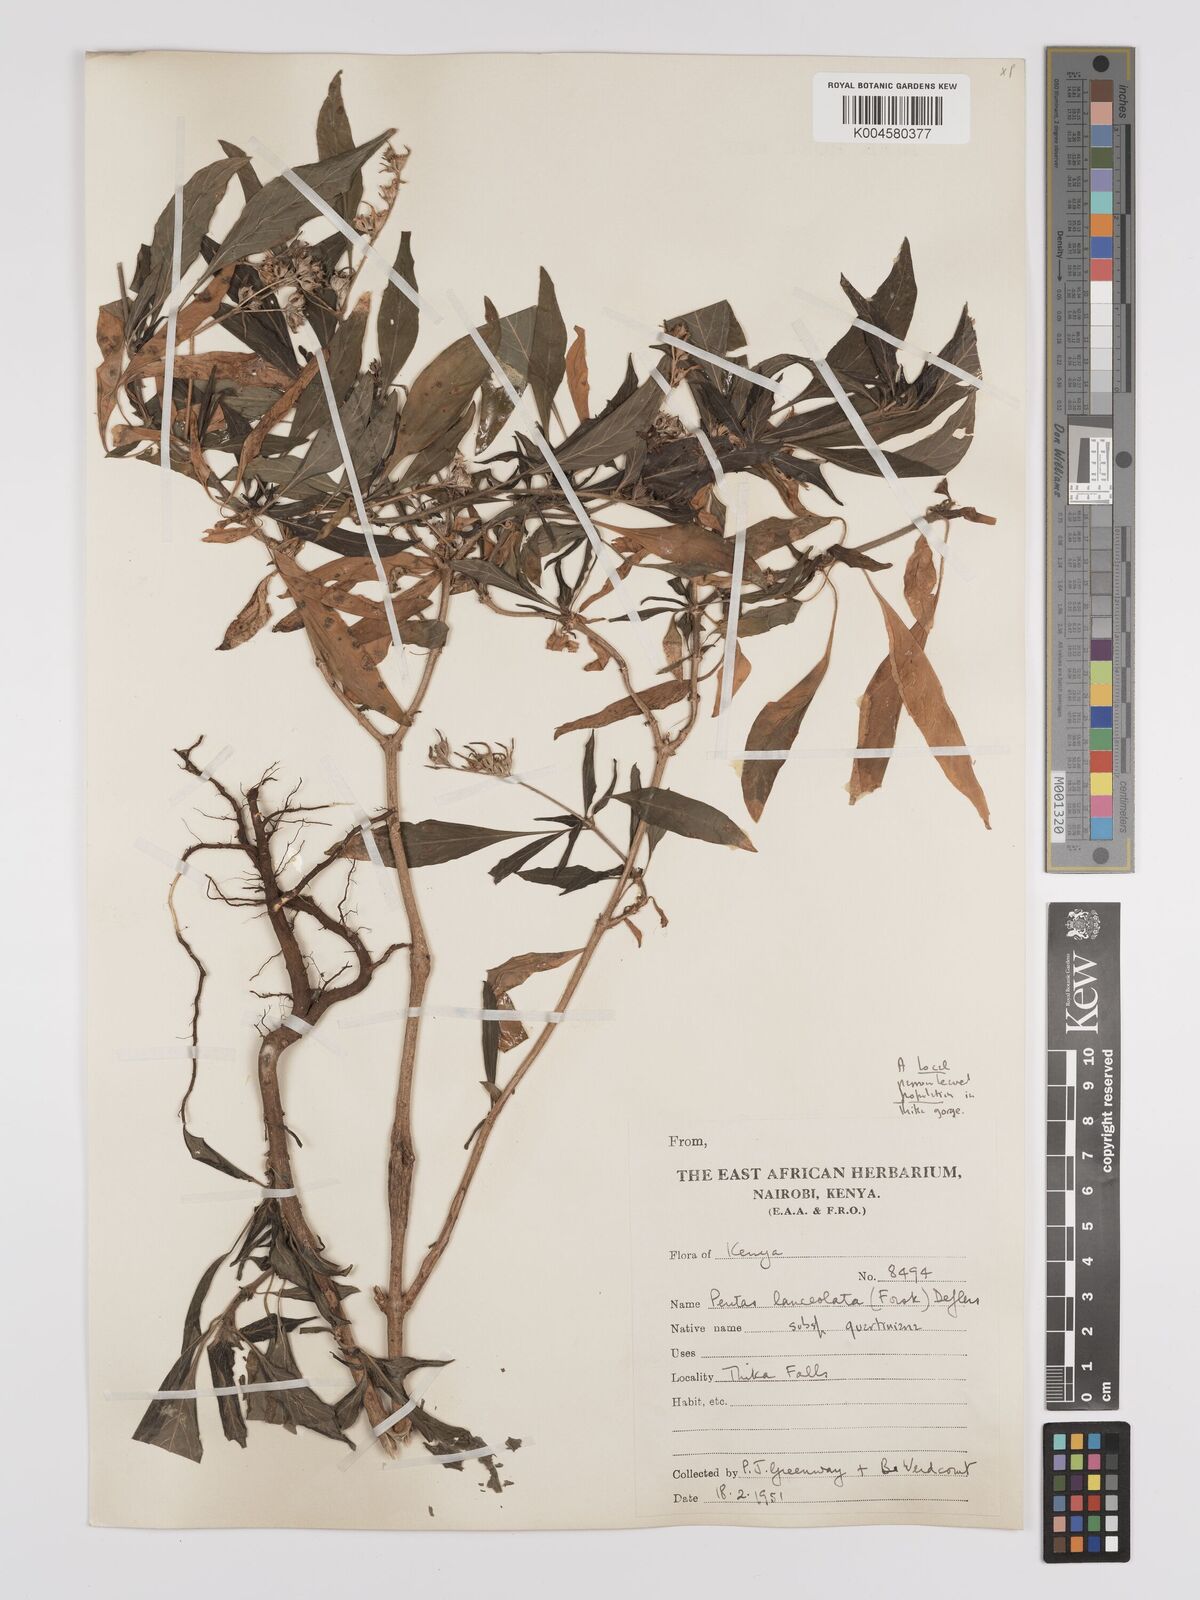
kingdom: Plantae
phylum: Tracheophyta
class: Magnoliopsida
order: Gentianales
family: Rubiaceae
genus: Pentas
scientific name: Pentas lanceolata
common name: Egyptian starcluster
